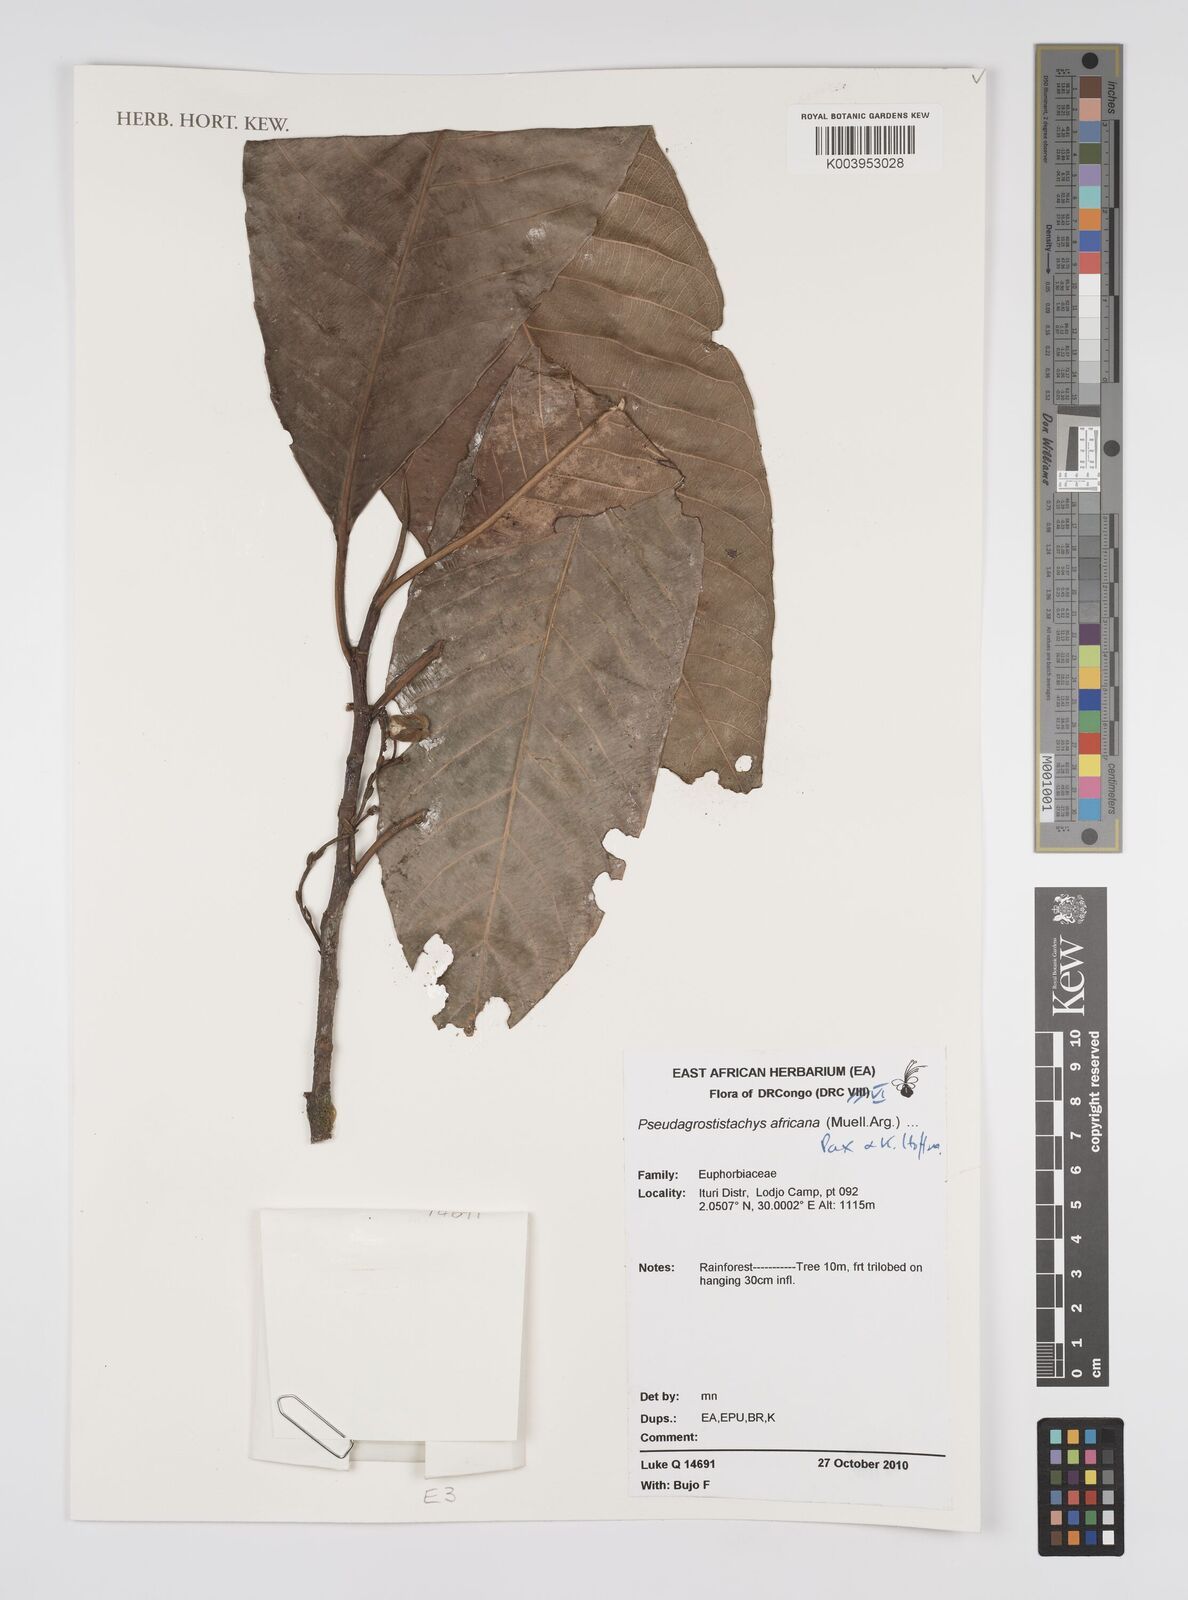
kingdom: Plantae
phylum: Tracheophyta
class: Magnoliopsida
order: Malpighiales
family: Euphorbiaceae
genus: Pseudagrostistachys
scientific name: Pseudagrostistachys africana
